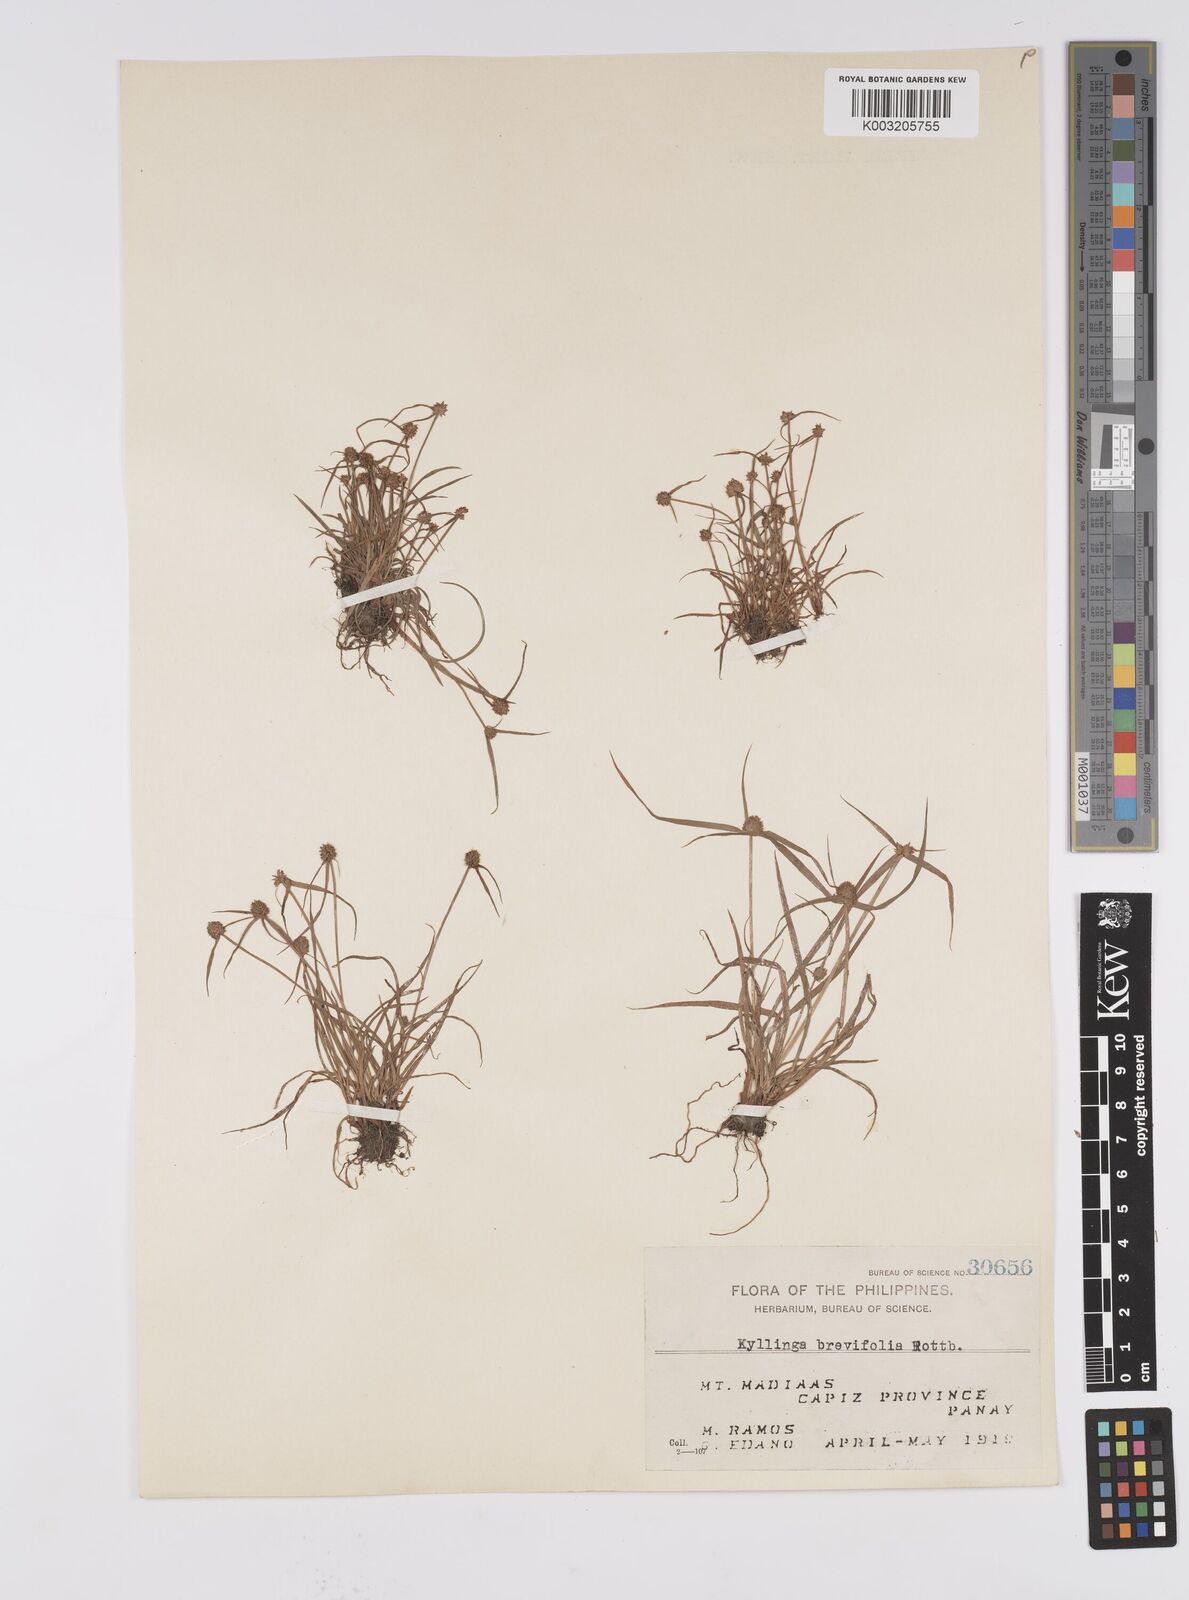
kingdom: Plantae
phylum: Tracheophyta
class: Liliopsida
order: Poales
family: Cyperaceae
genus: Cyperus
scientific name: Cyperus brevifolius
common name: Globe kyllinga
